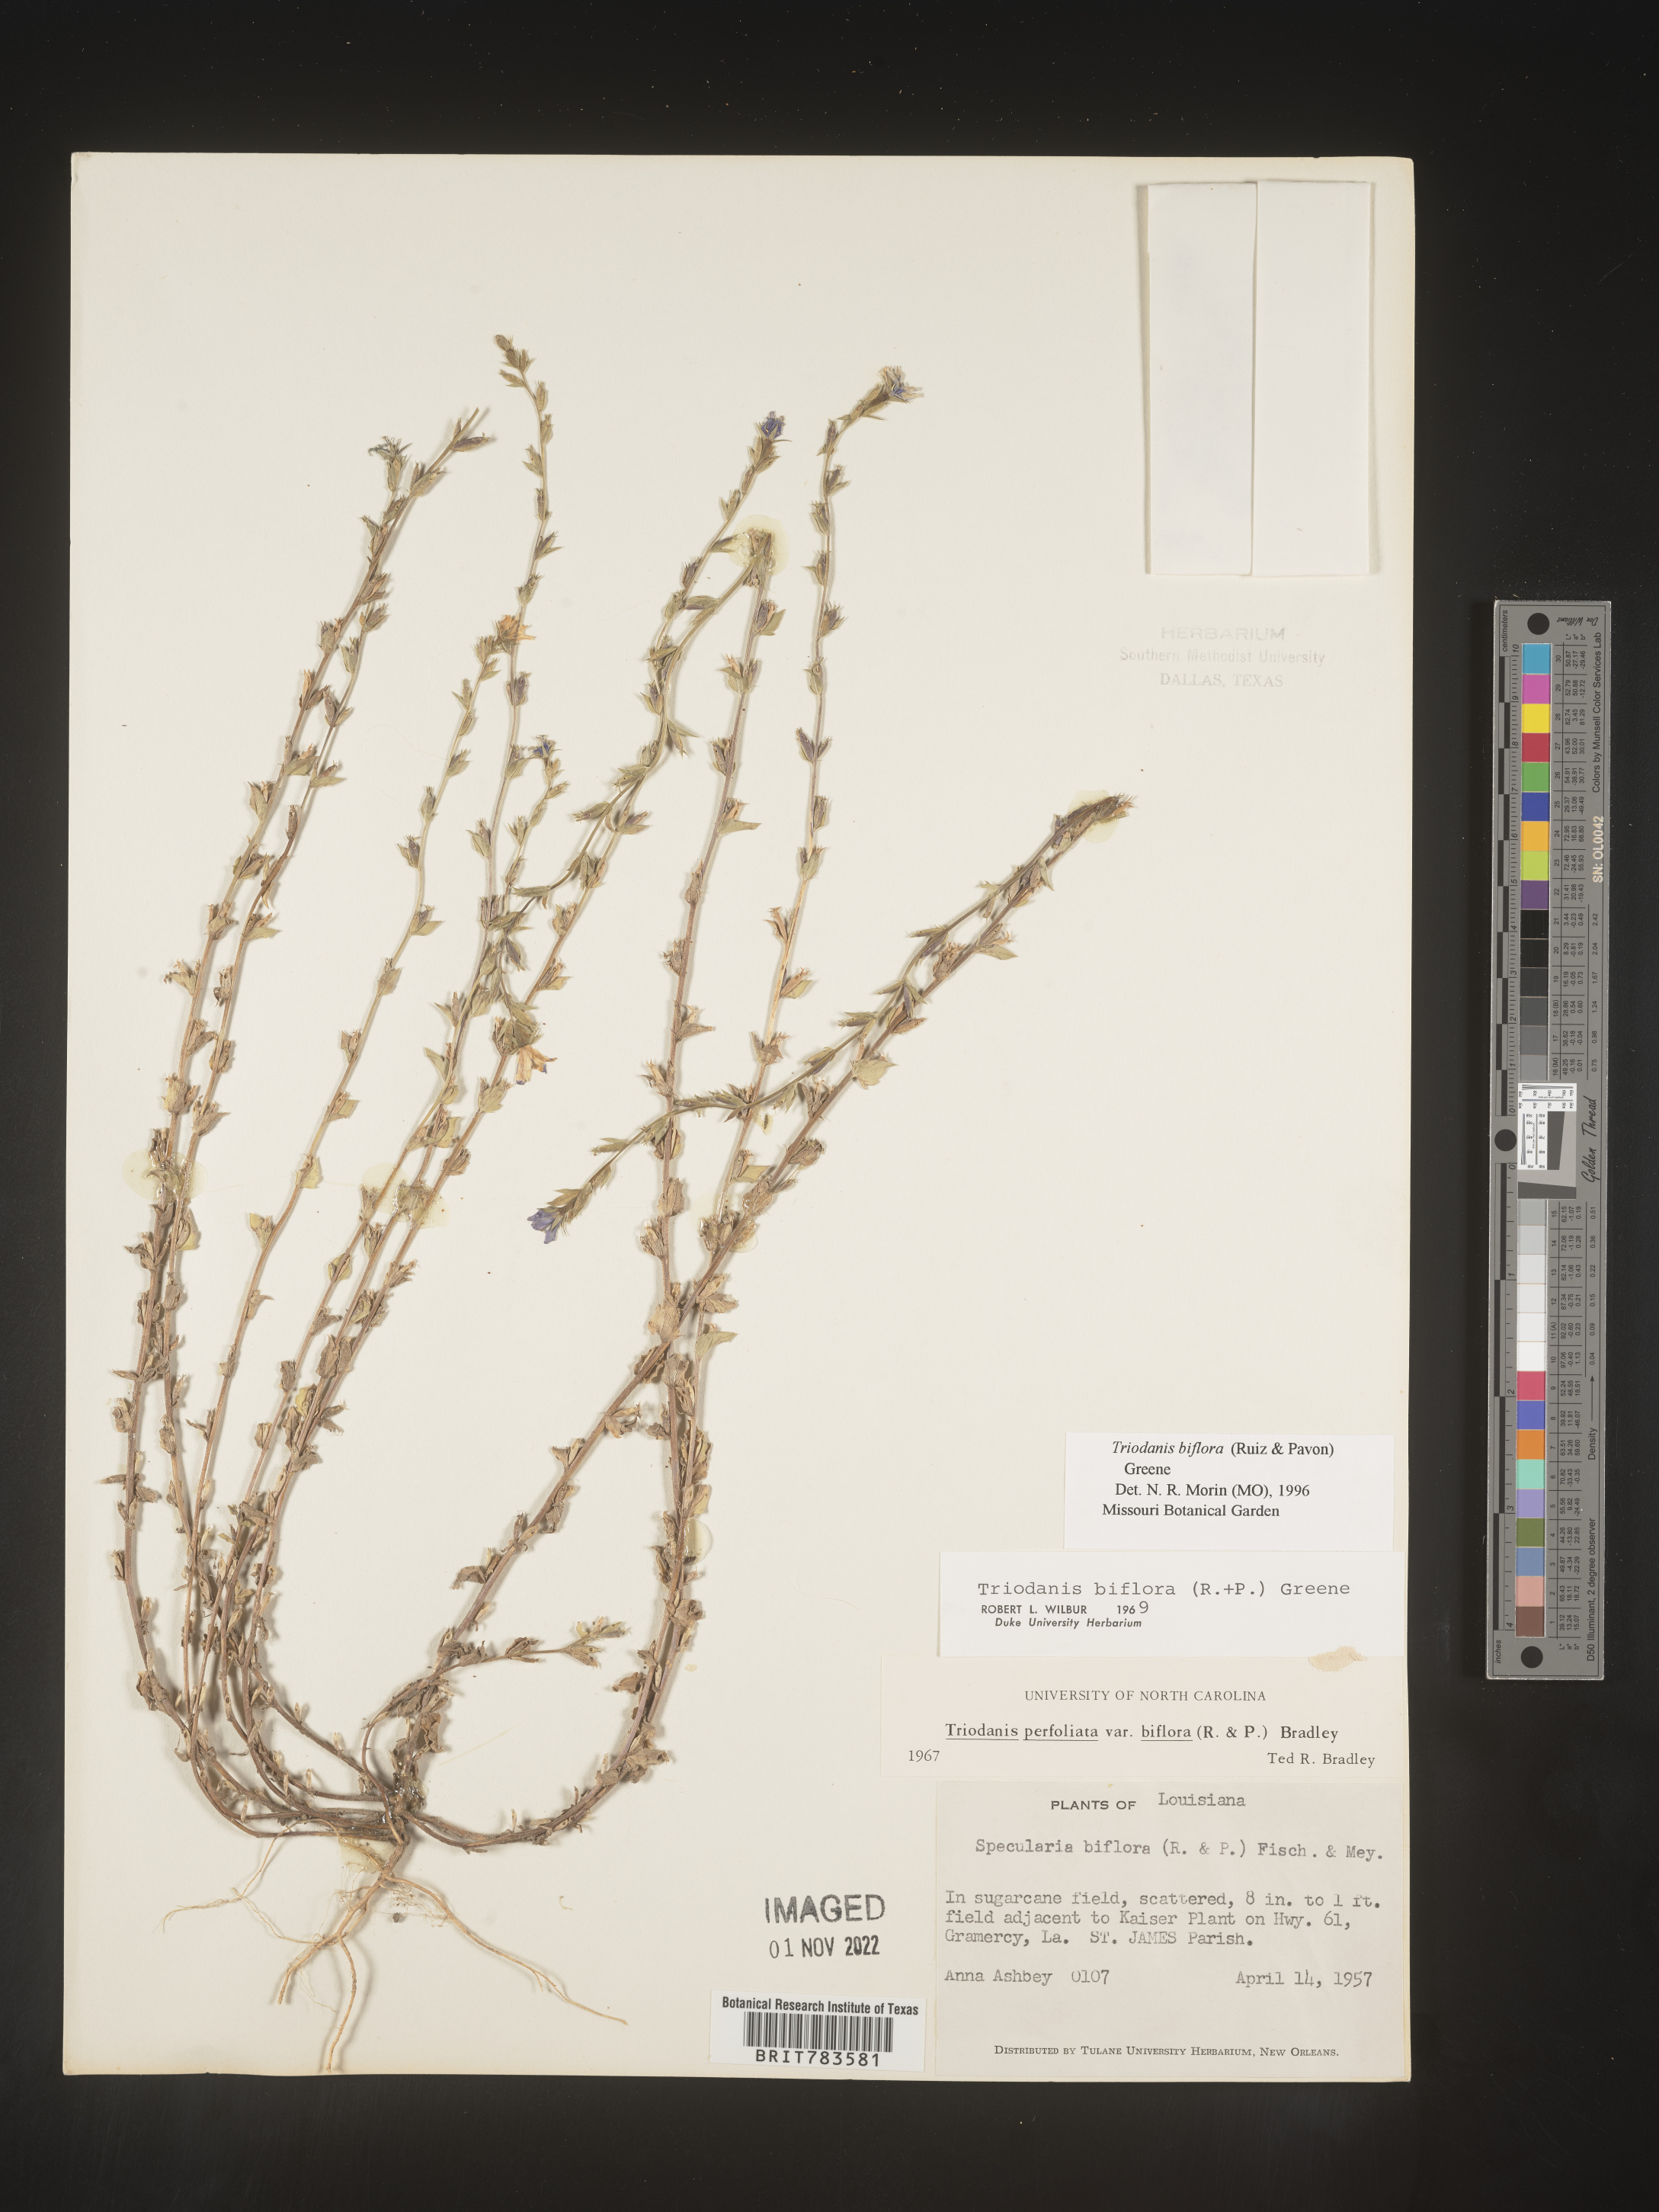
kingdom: Plantae
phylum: Tracheophyta
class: Magnoliopsida
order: Asterales
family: Campanulaceae
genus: Triodanis
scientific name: Triodanis perfoliata
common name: Clasping venus' looking-glass
